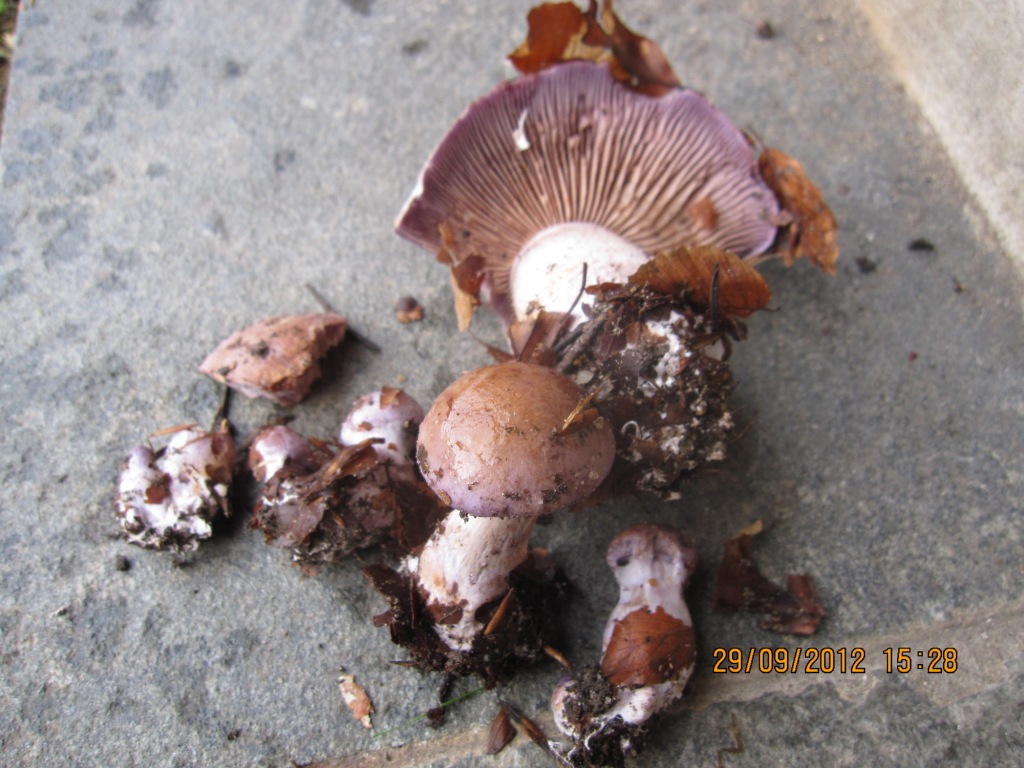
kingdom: Fungi
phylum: Basidiomycota
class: Agaricomycetes
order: Agaricales
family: Cortinariaceae
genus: Cortinarius
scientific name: Cortinarius largus
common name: violetrandet slørhat
